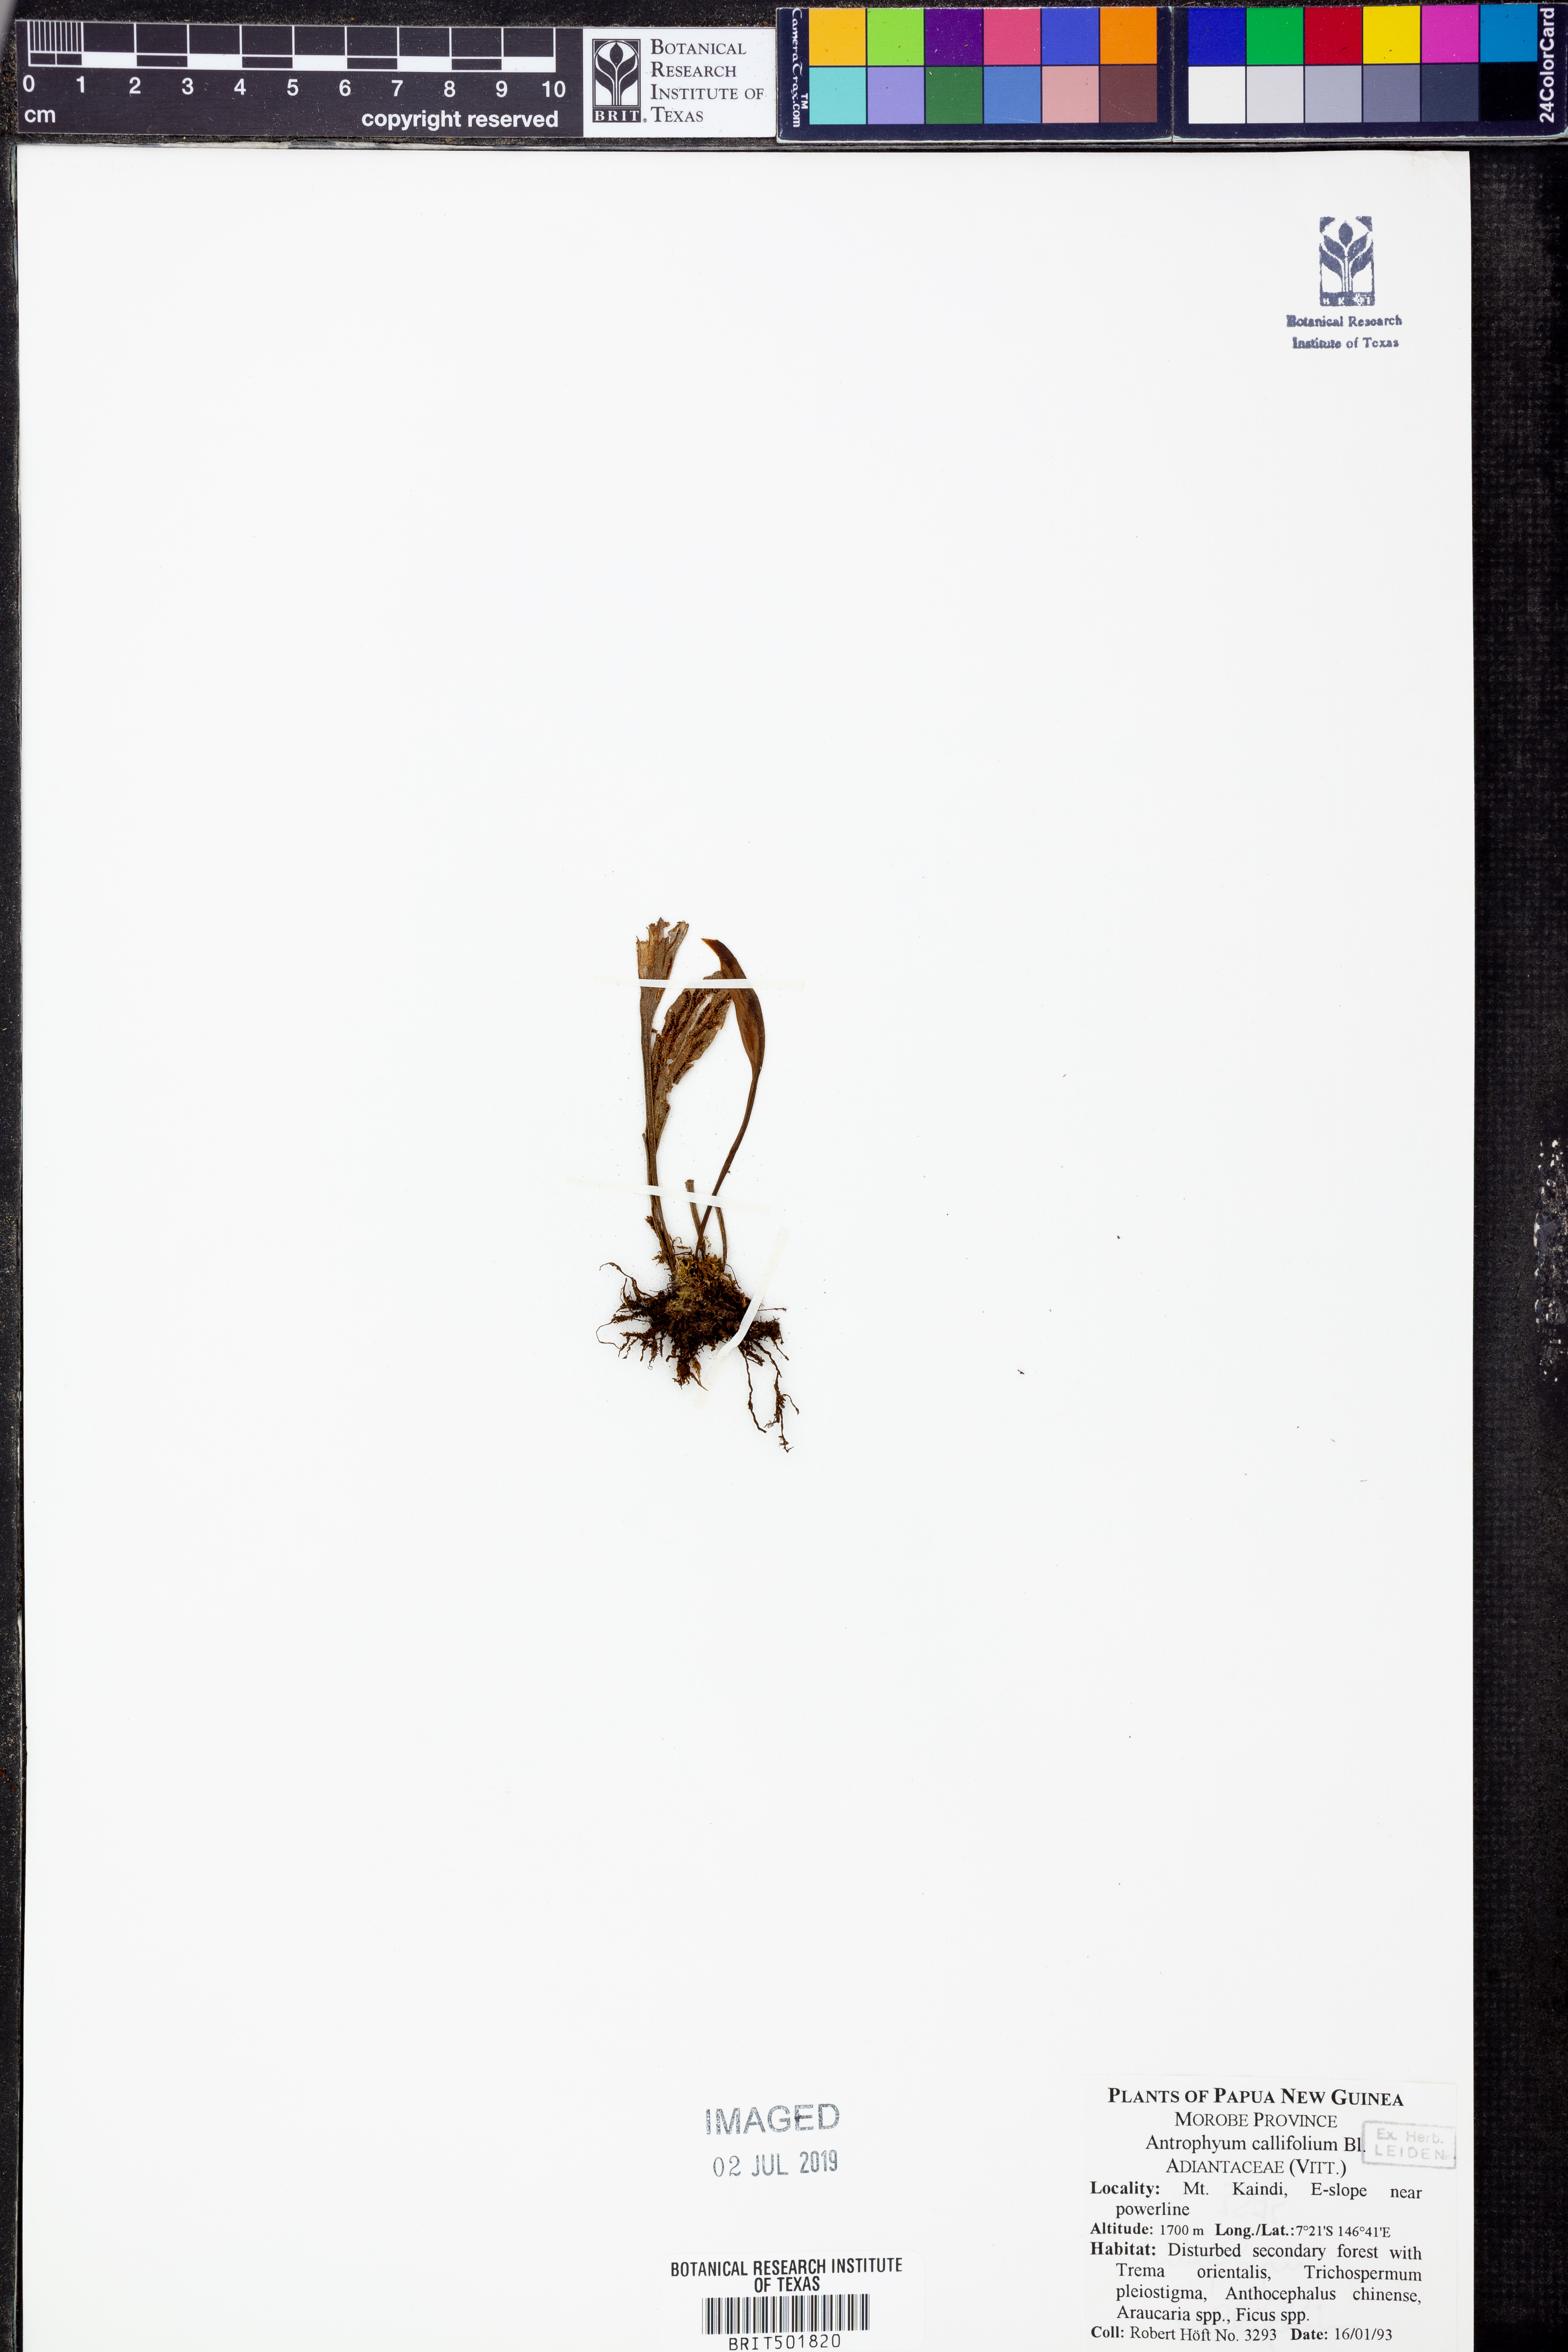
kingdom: Plantae
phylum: Tracheophyta
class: Polypodiopsida
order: Polypodiales
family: Pteridaceae
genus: Antrophyum
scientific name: Antrophyum callifolium
